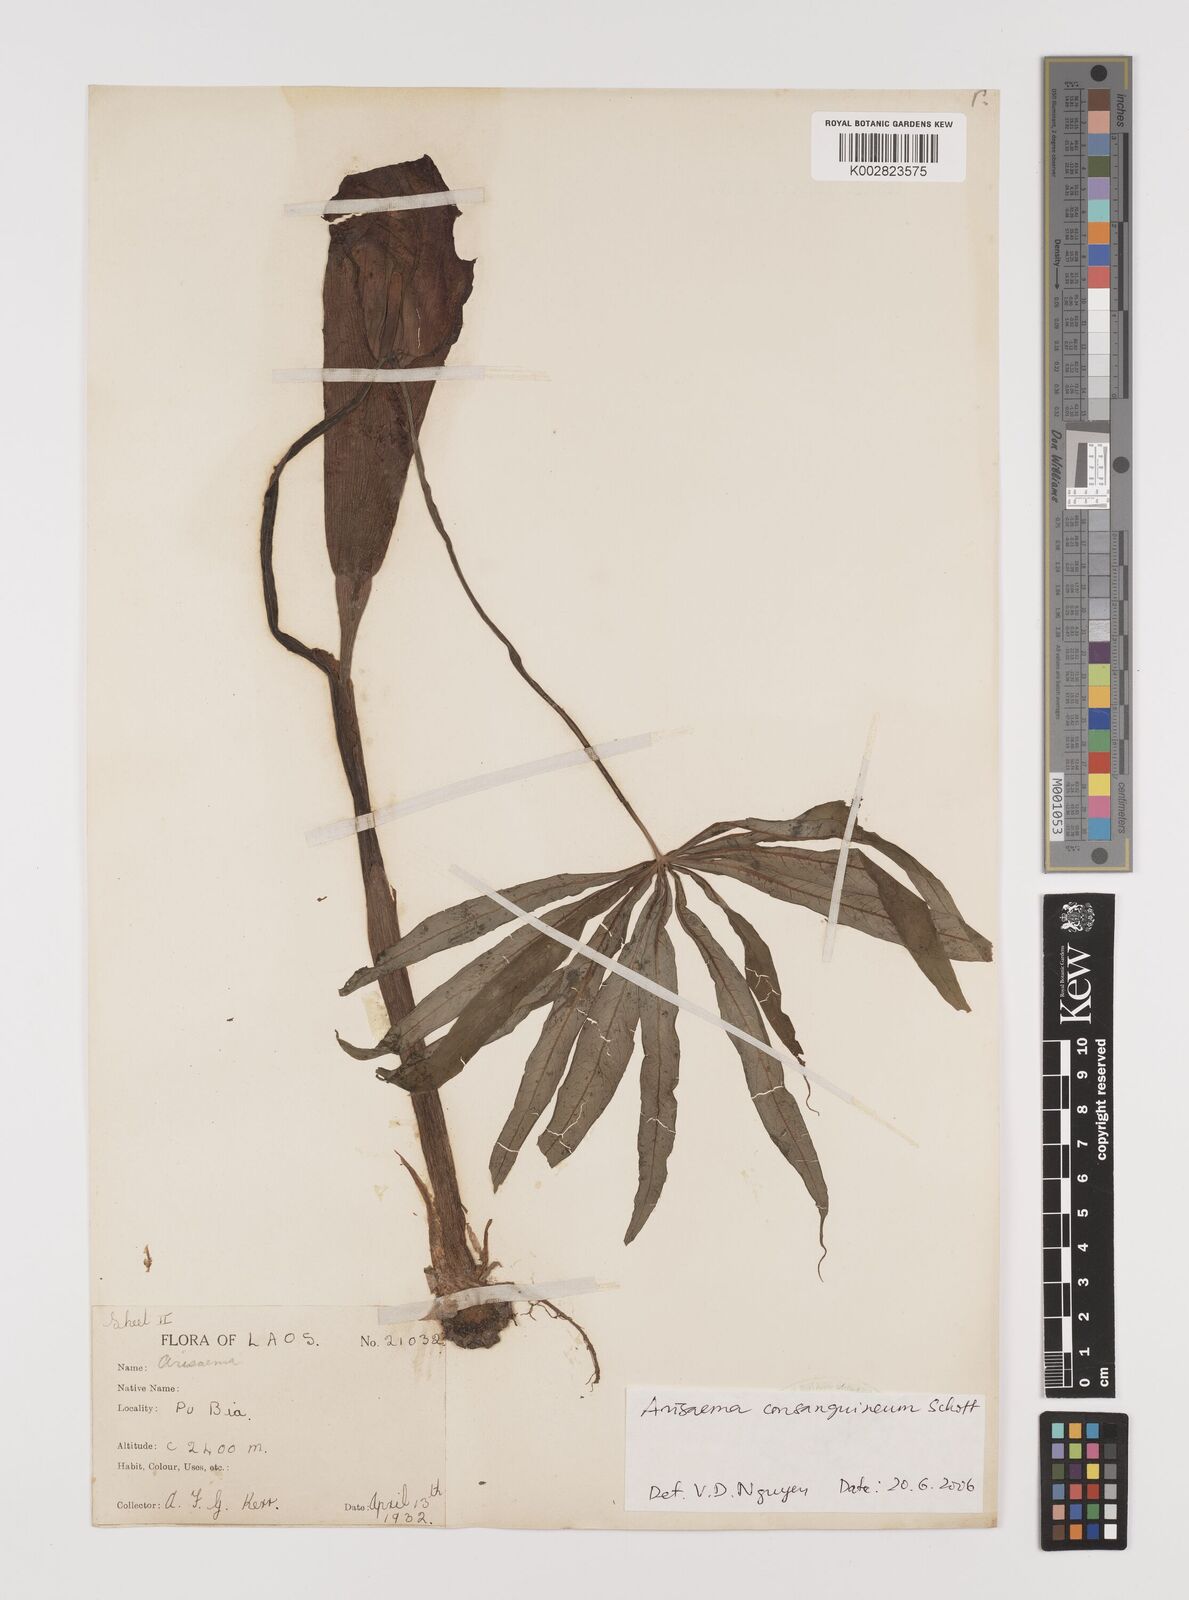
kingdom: Plantae
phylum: Tracheophyta
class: Liliopsida
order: Alismatales
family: Araceae
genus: Arisaema
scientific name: Arisaema consanguineum
